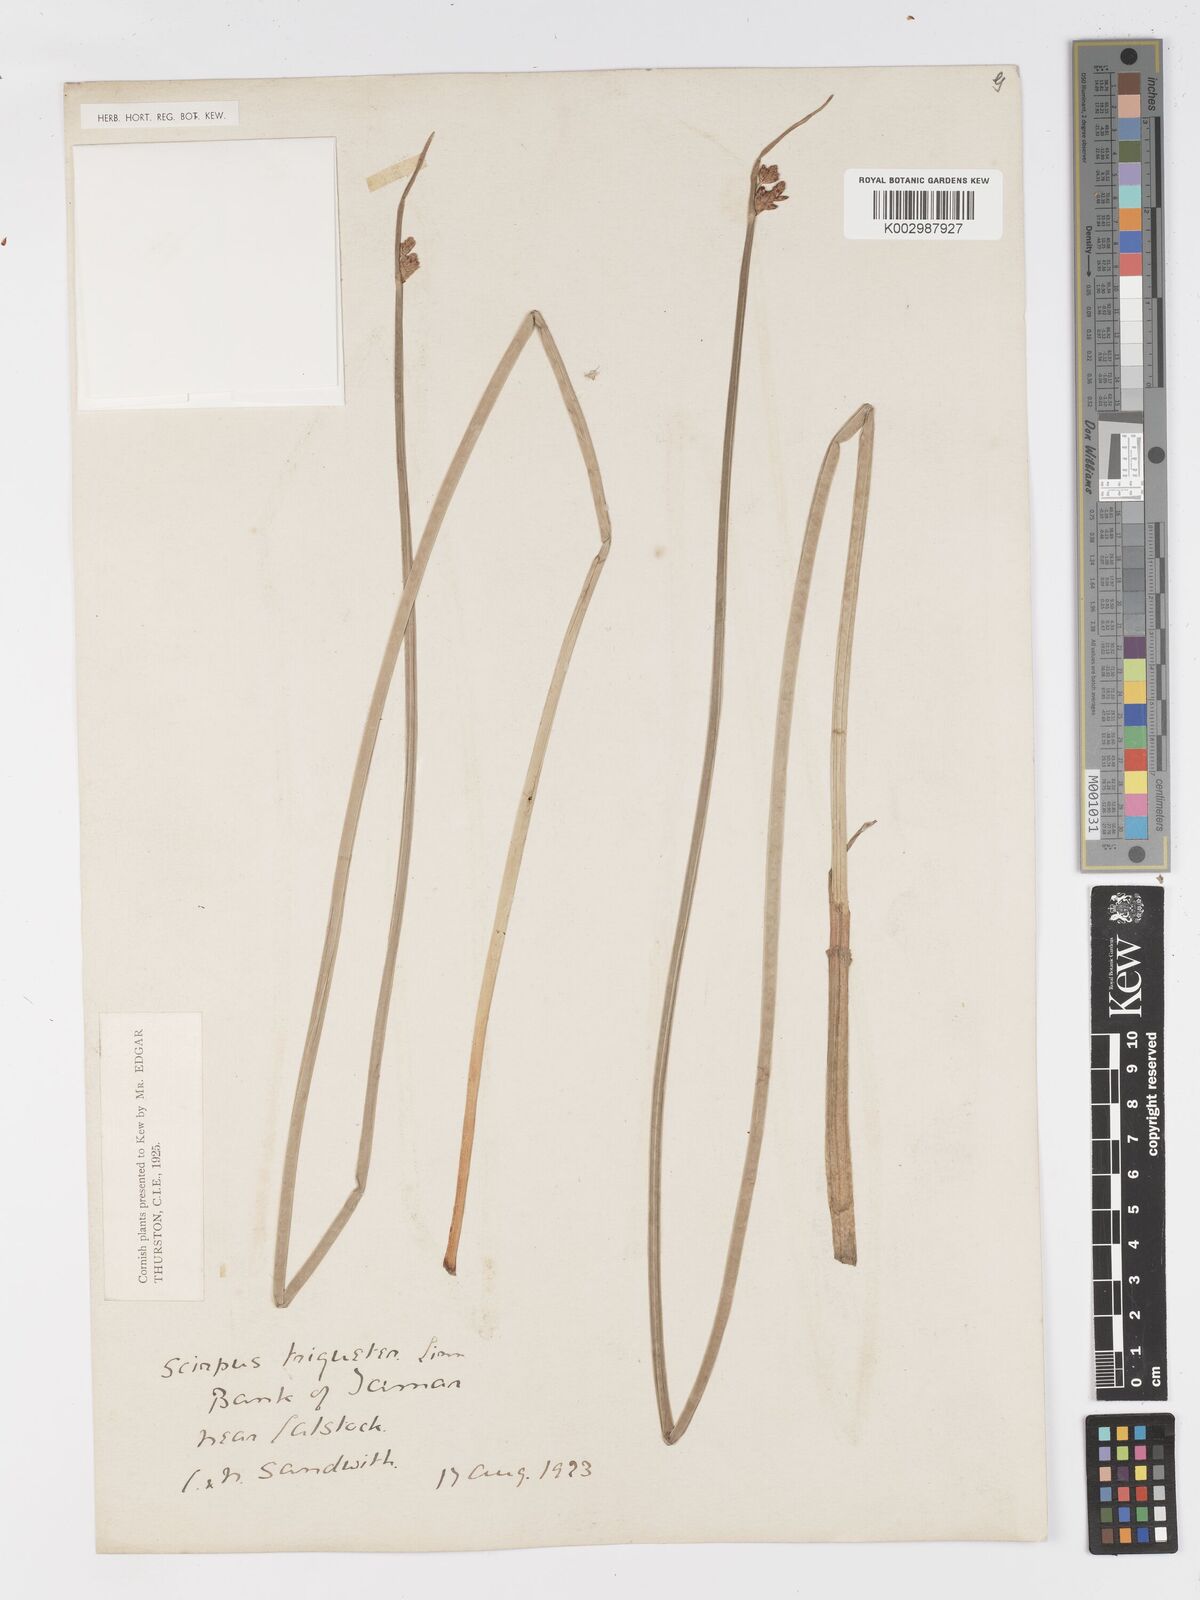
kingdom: Plantae
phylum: Tracheophyta
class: Liliopsida
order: Poales
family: Cyperaceae
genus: Schoenoplectus
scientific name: Schoenoplectus triqueter
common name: Triangular club-rush
